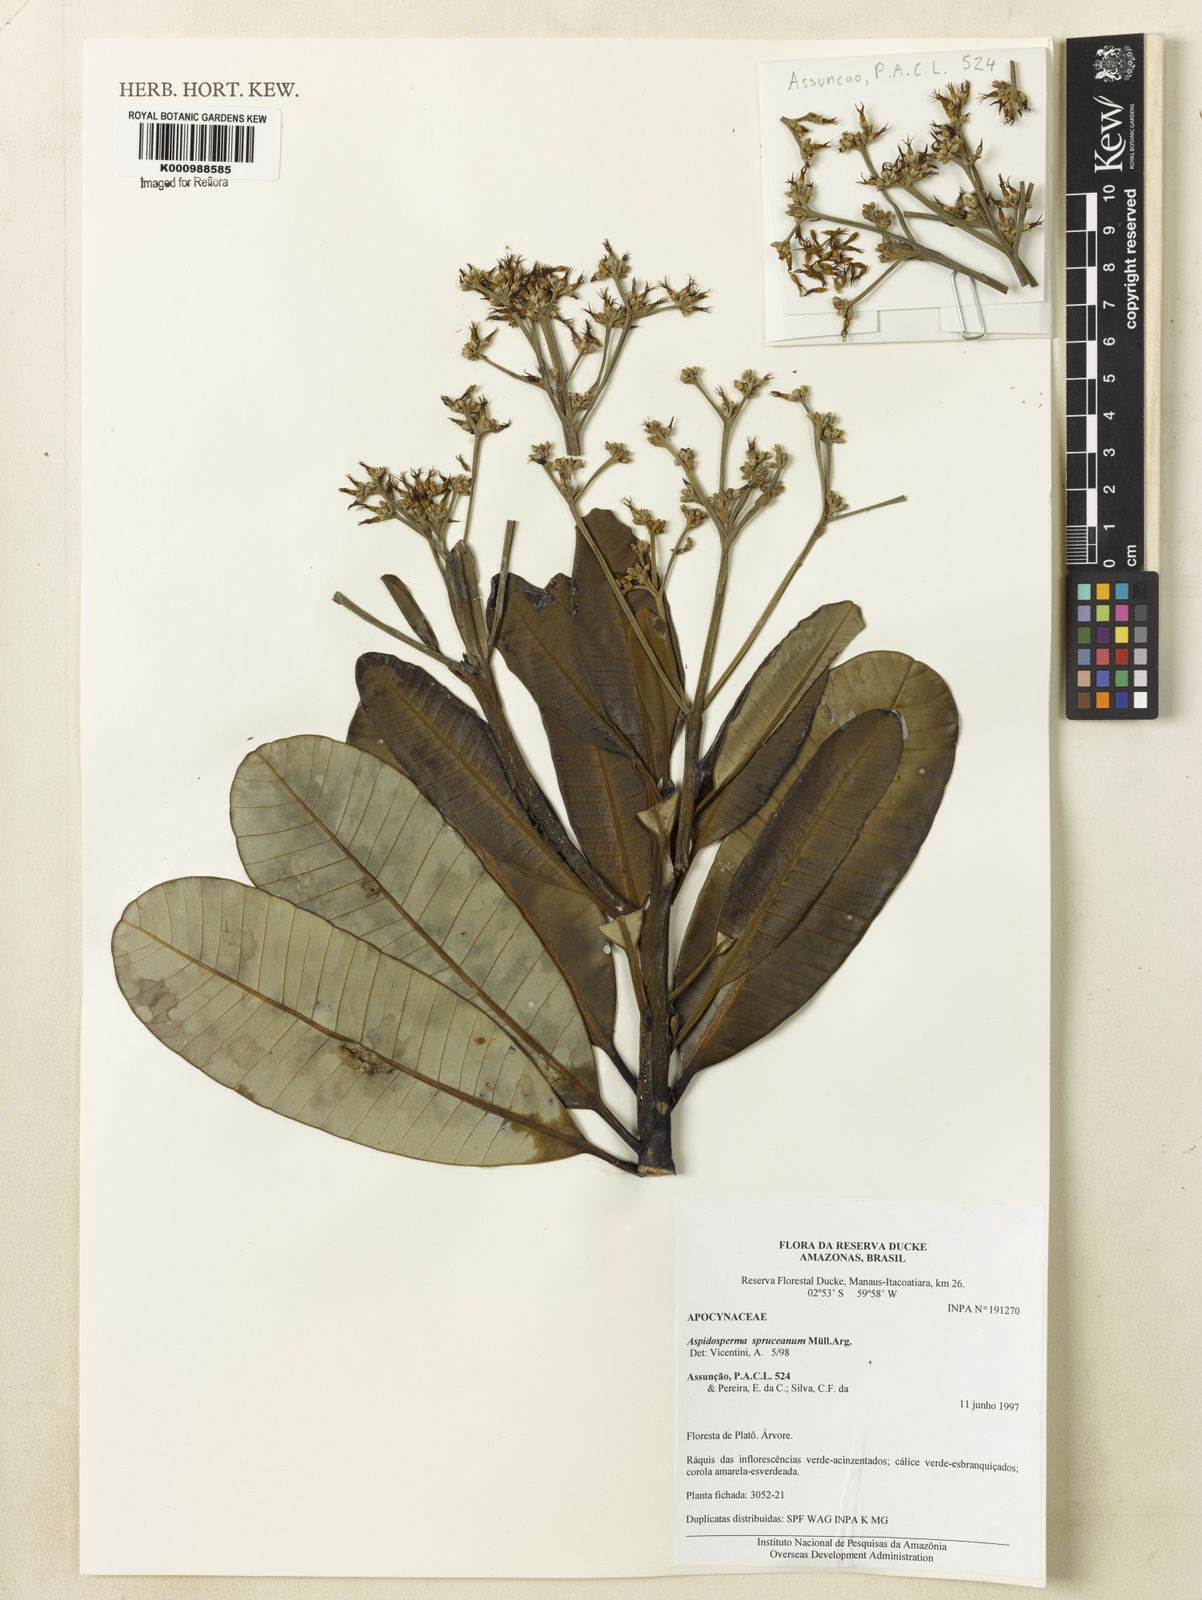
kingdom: Plantae
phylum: Tracheophyta
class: Magnoliopsida
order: Gentianales
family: Apocynaceae
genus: Aspidosperma
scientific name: Aspidosperma
